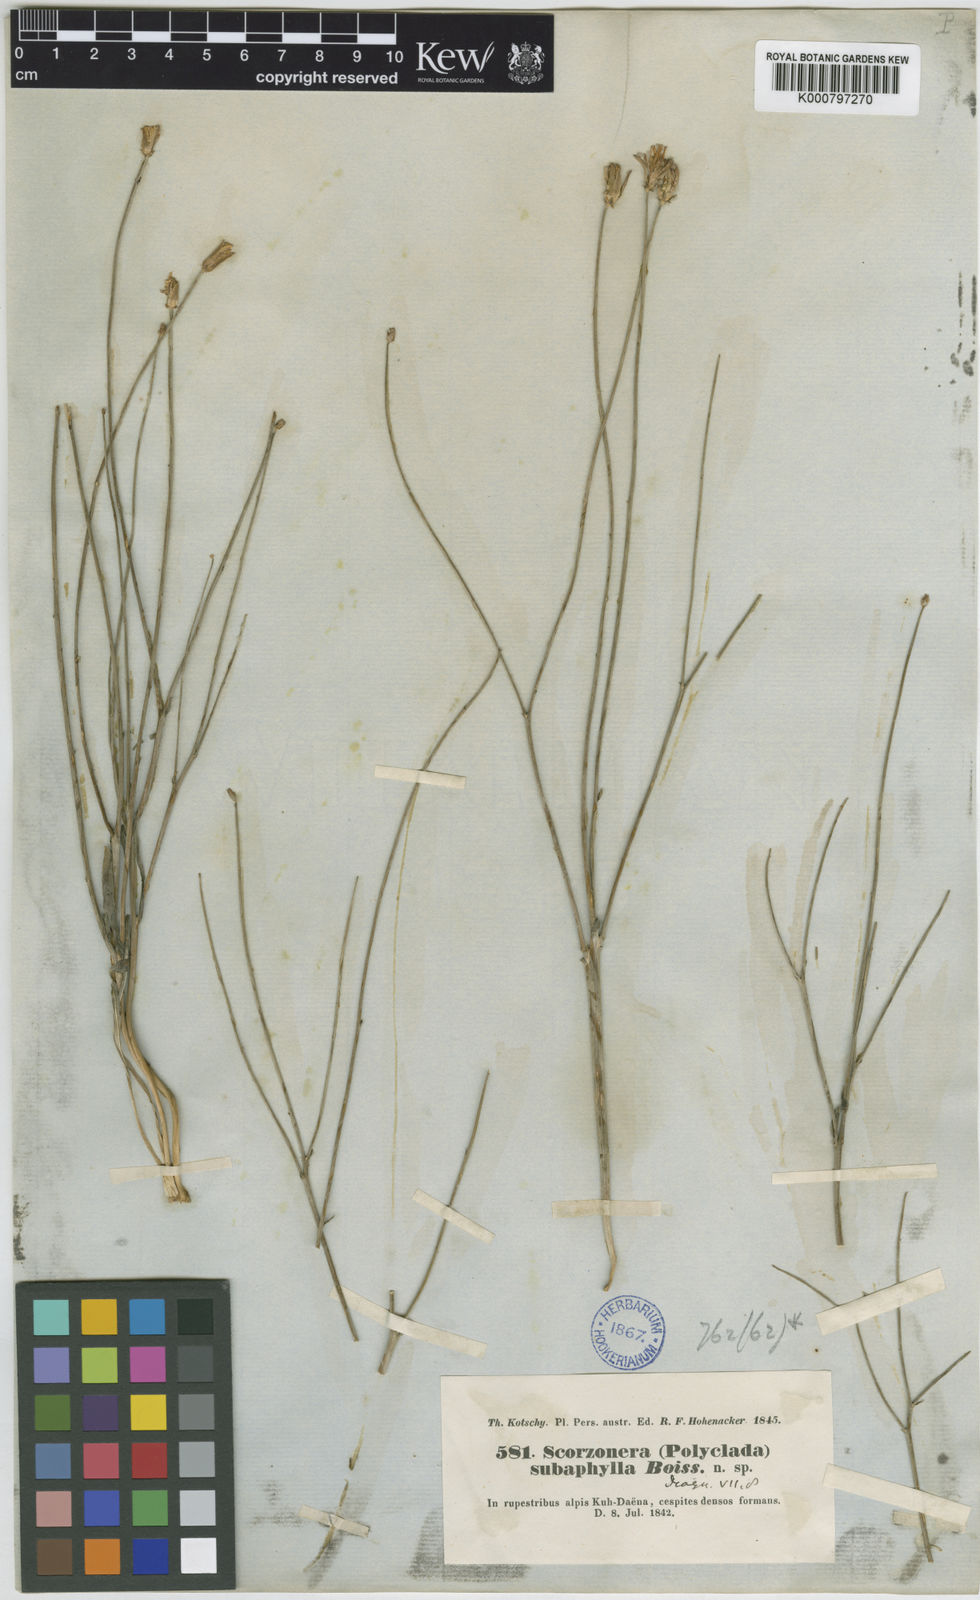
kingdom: Plantae
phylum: Tracheophyta
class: Magnoliopsida
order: Asterales
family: Asteraceae
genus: Scorzonera
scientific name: Scorzonera subaphylla
